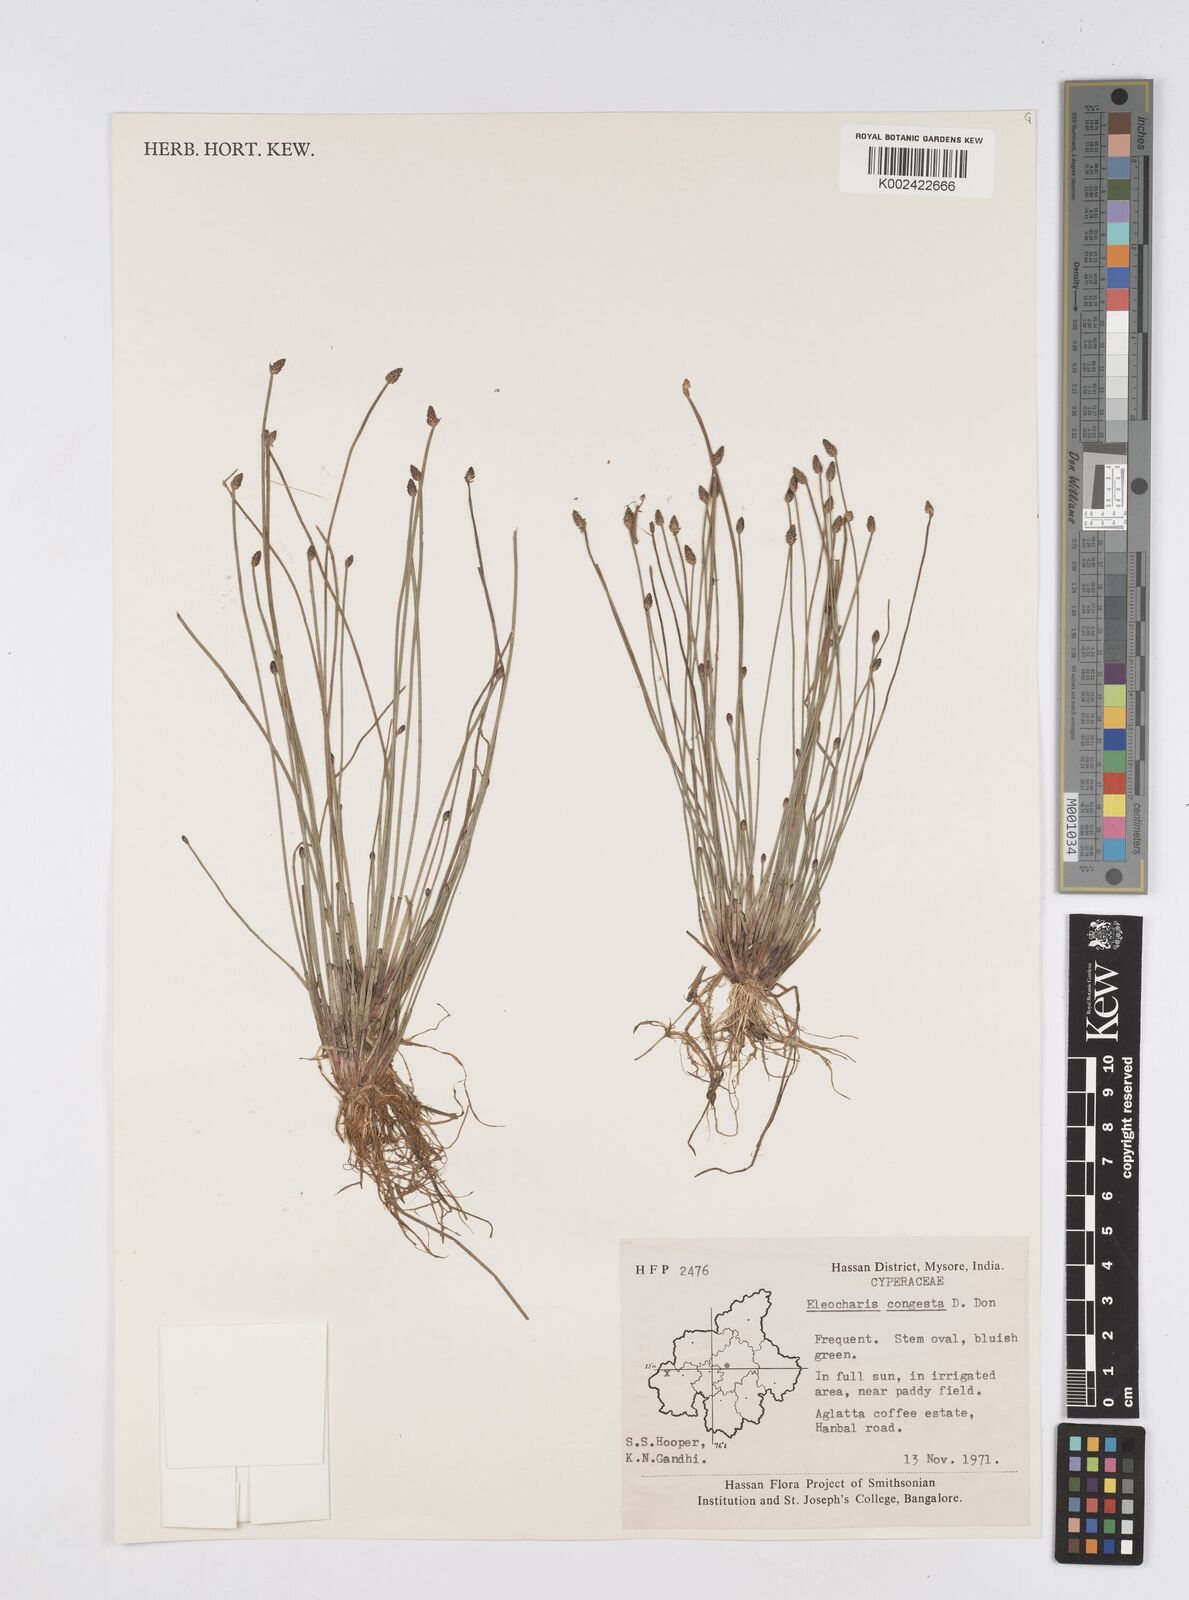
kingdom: Plantae
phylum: Tracheophyta
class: Liliopsida
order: Poales
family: Cyperaceae
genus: Eleocharis
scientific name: Eleocharis congesta
